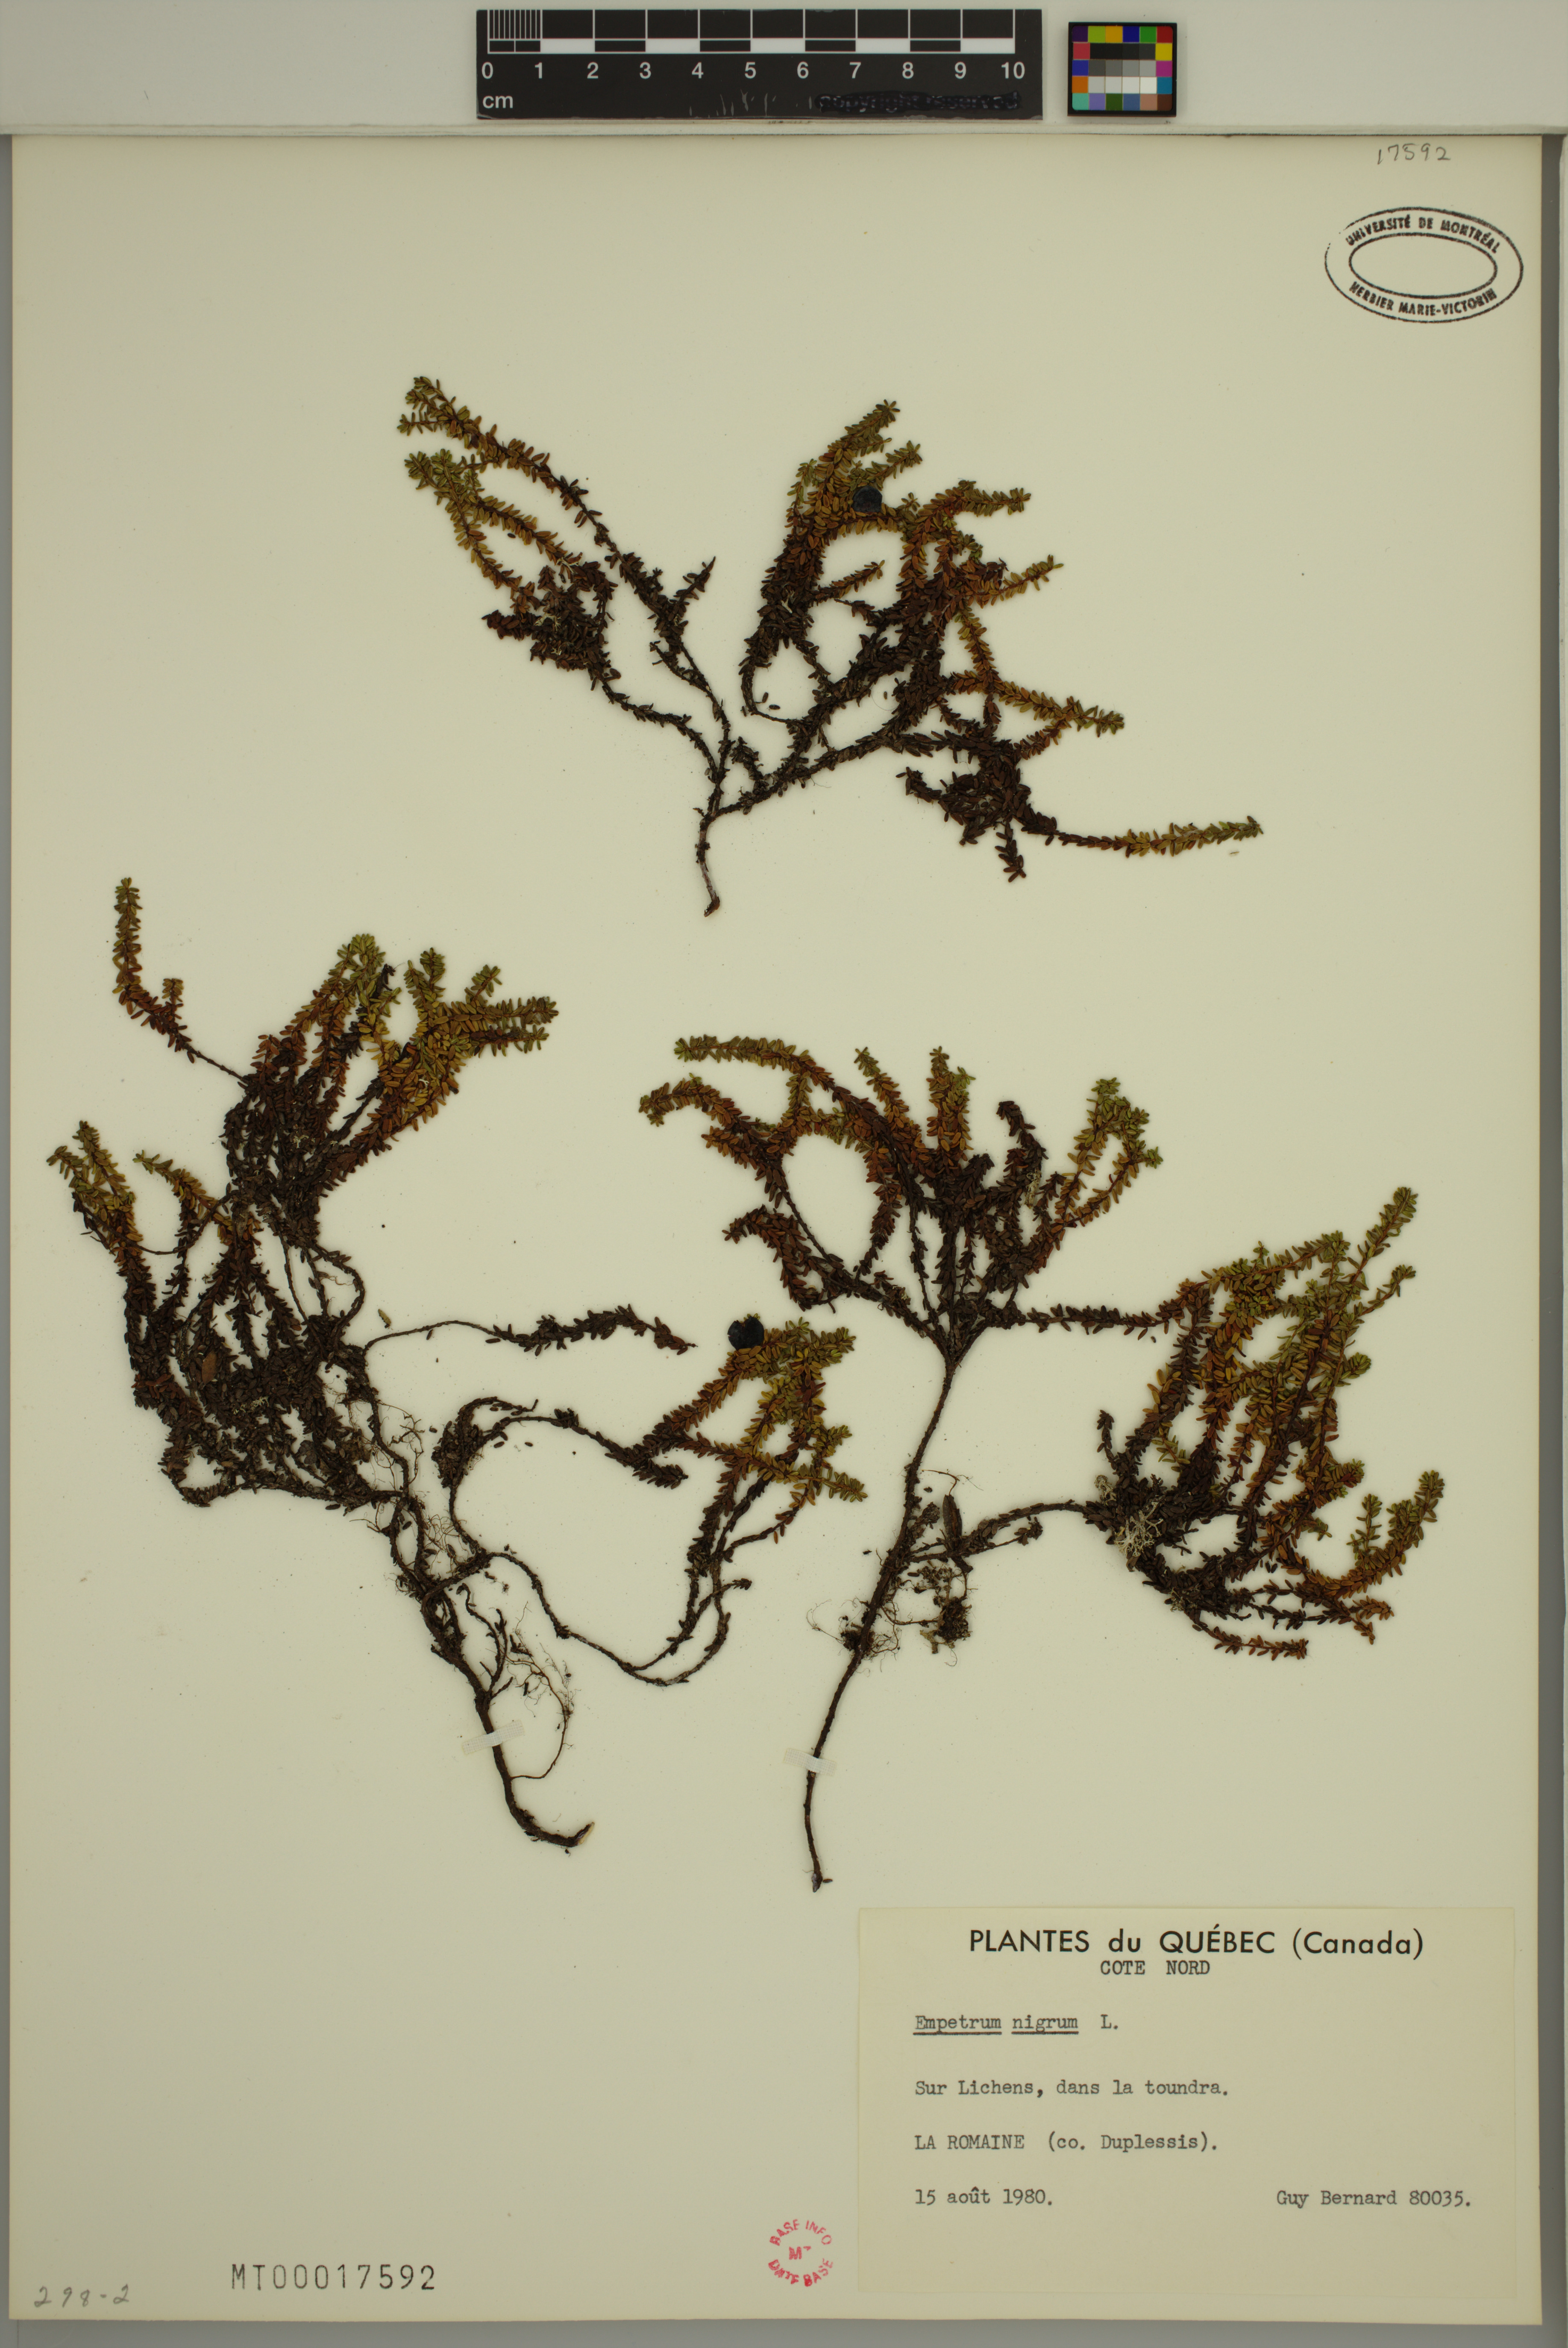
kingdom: Plantae
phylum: Tracheophyta
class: Magnoliopsida
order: Ericales
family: Ericaceae
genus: Empetrum
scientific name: Empetrum nigrum
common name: Black crowberry
